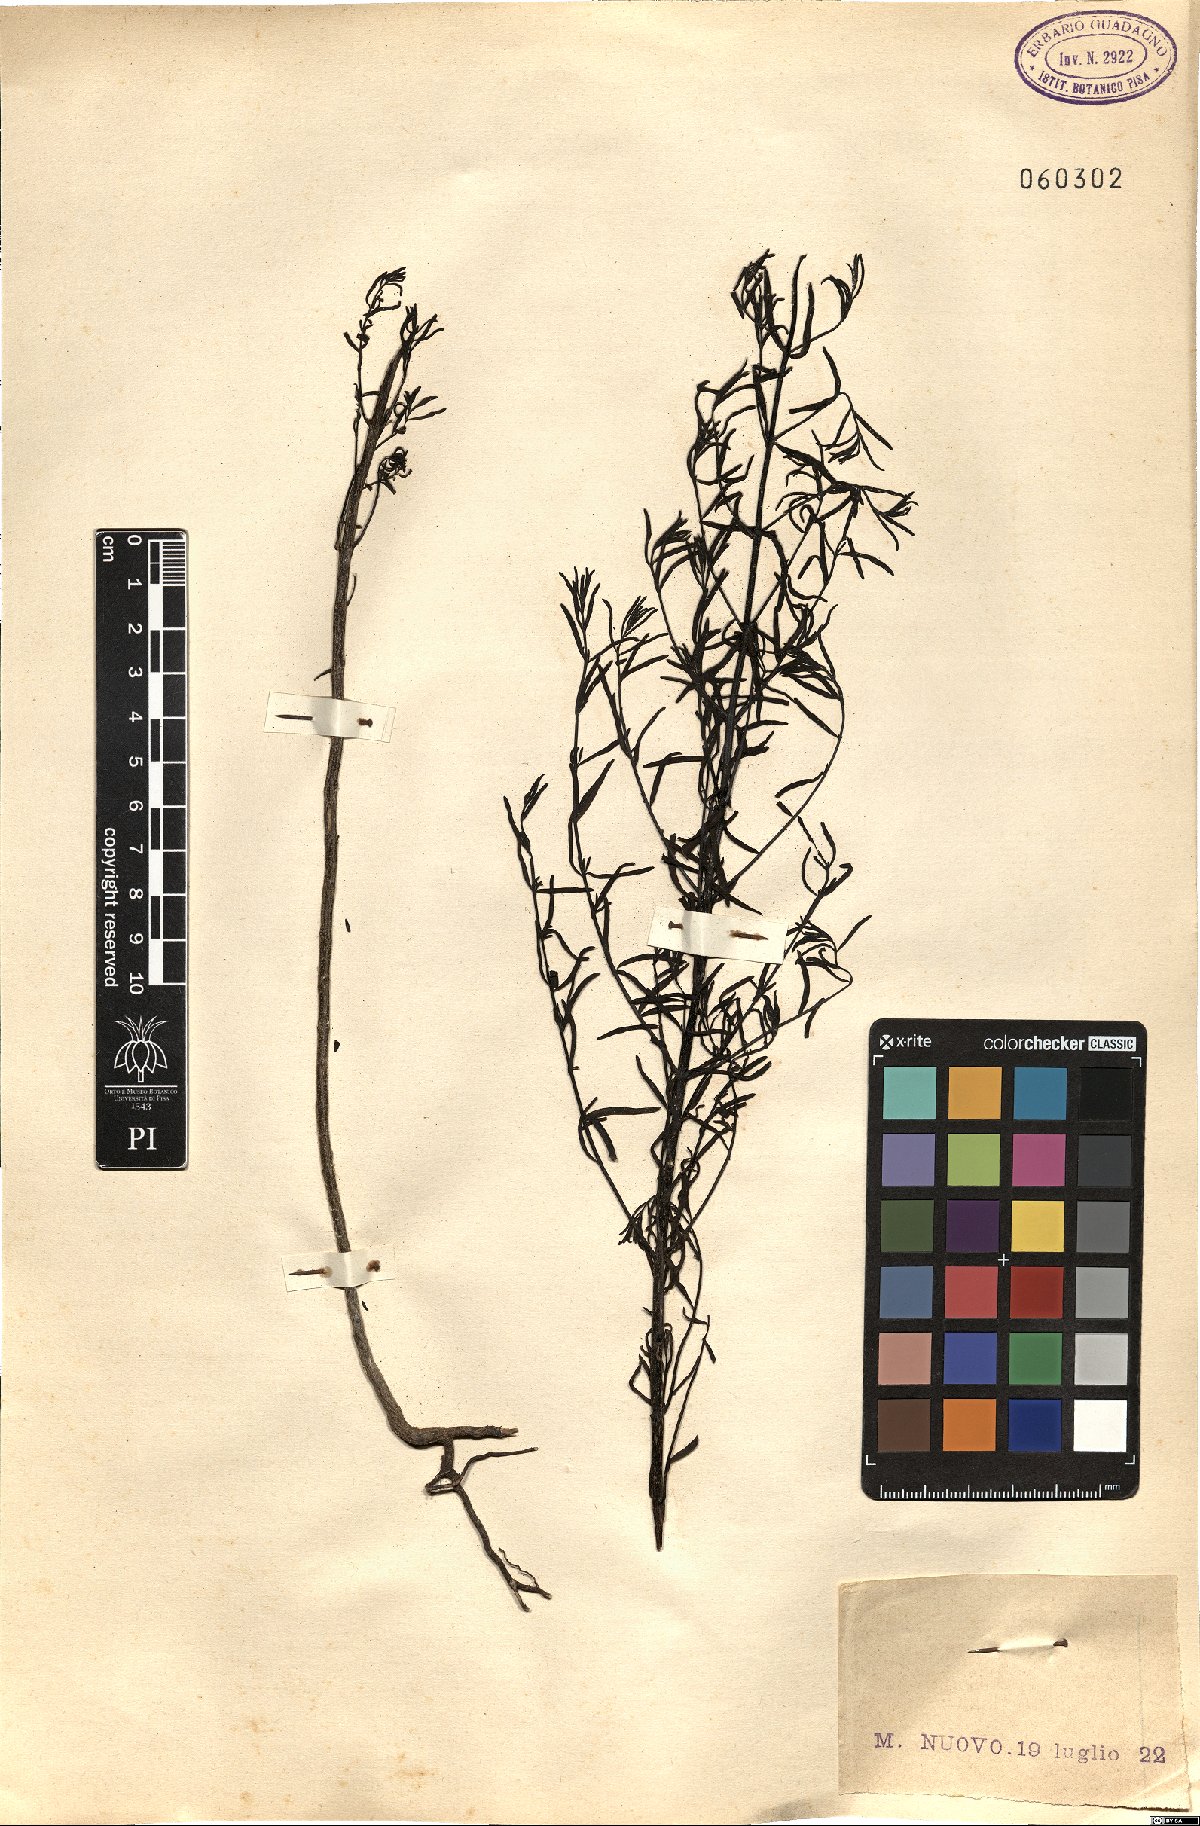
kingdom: Plantae
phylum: Tracheophyta
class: Magnoliopsida
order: Lamiales
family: Orobanchaceae
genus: Odontites
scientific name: Odontites
